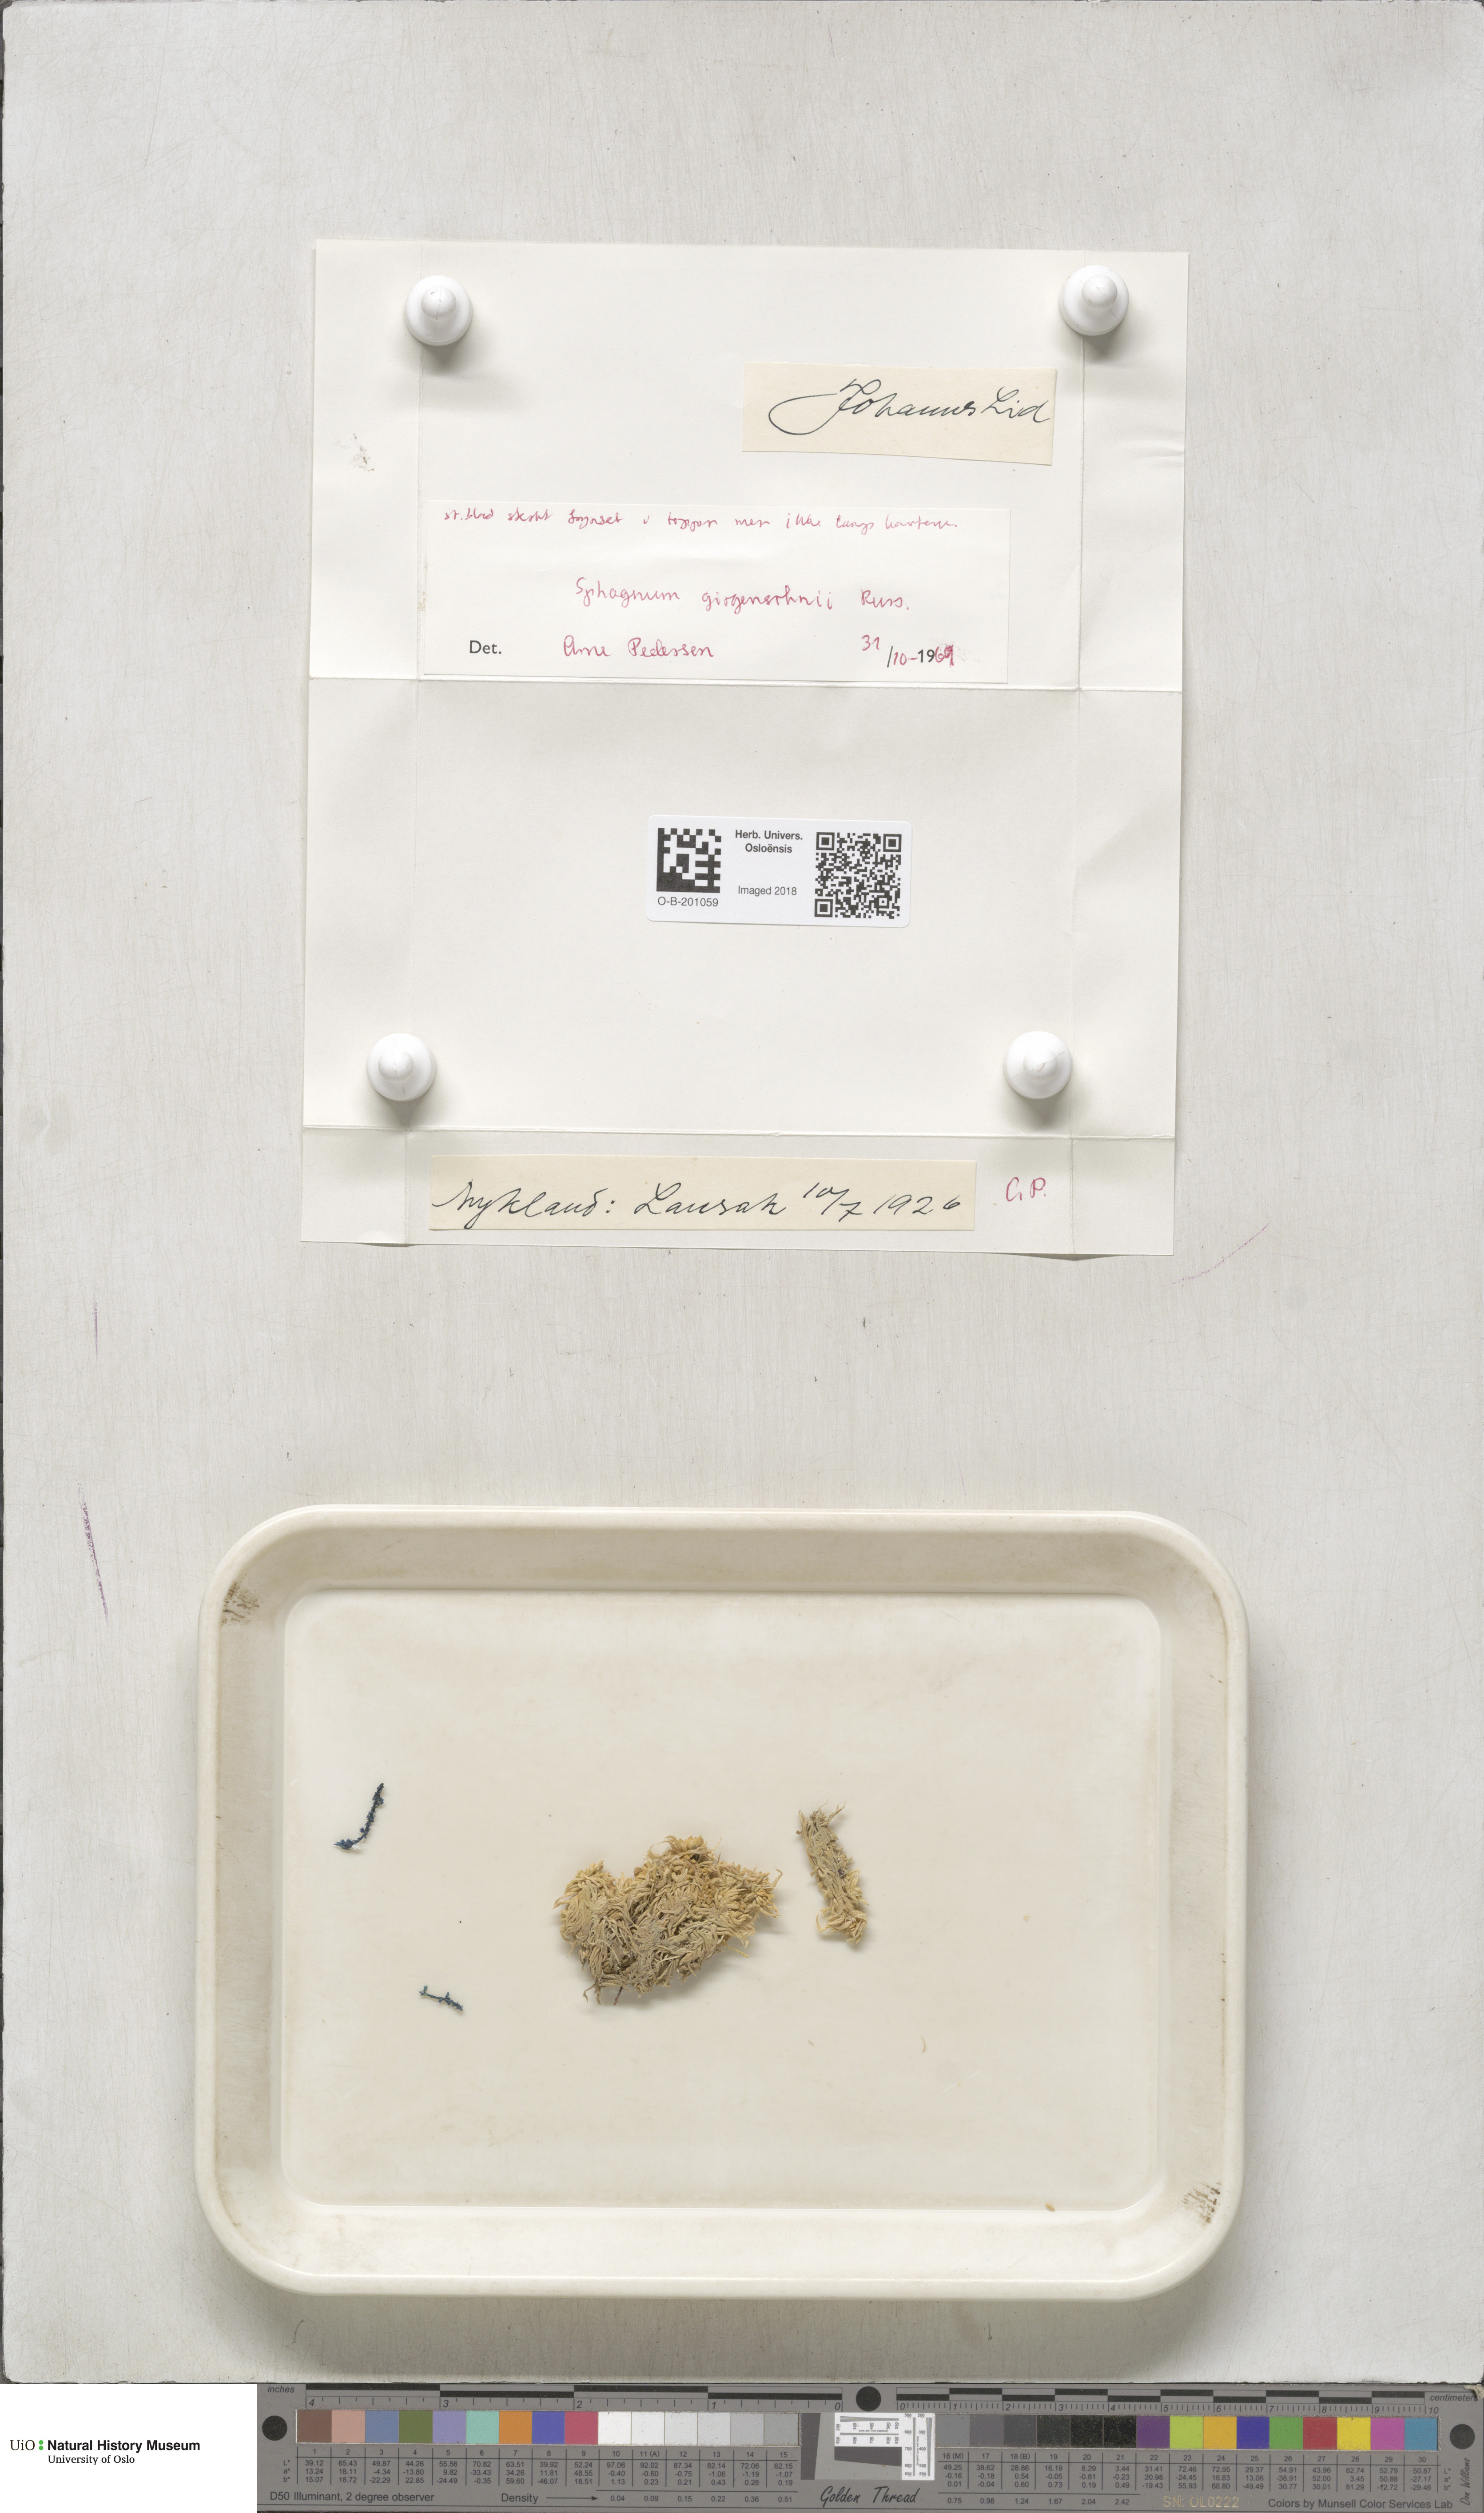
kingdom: Plantae
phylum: Bryophyta
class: Sphagnopsida
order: Sphagnales
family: Sphagnaceae
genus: Sphagnum
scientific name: Sphagnum girgensohnii
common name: Girgensohn's peat moss
